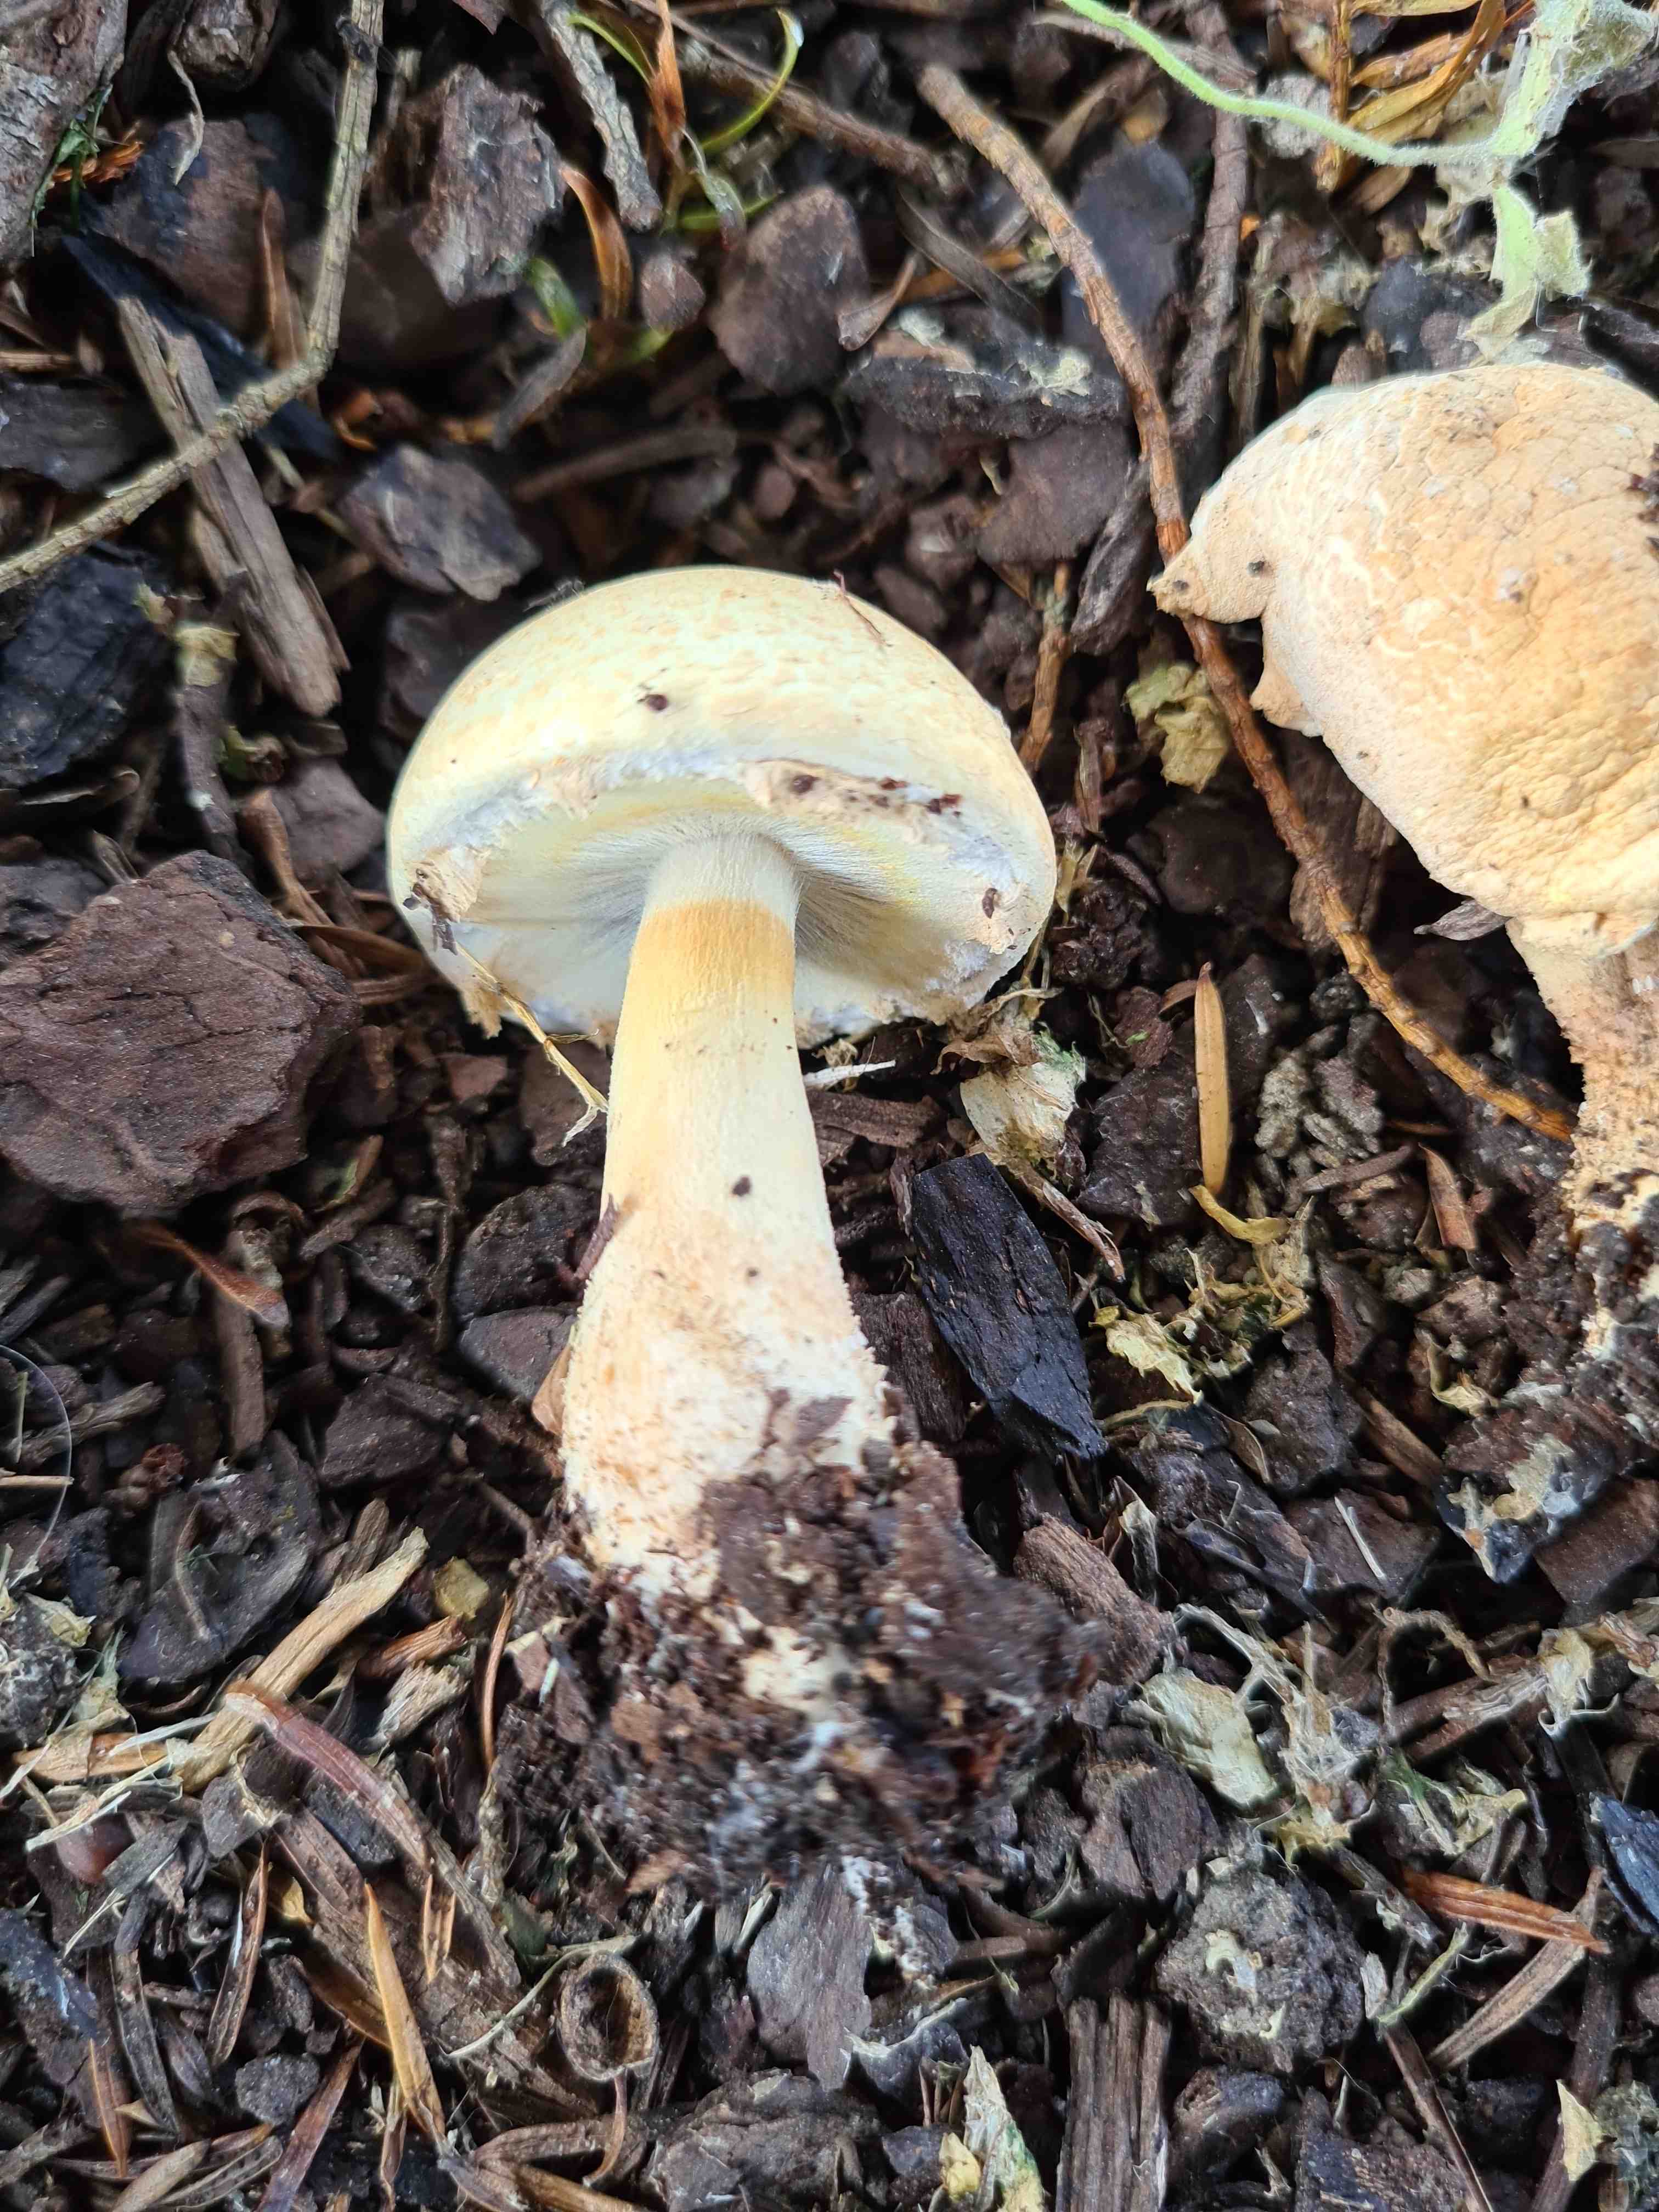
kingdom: Fungi
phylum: Basidiomycota
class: Agaricomycetes
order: Agaricales
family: Agaricaceae
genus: Agaricus
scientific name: Agaricus
